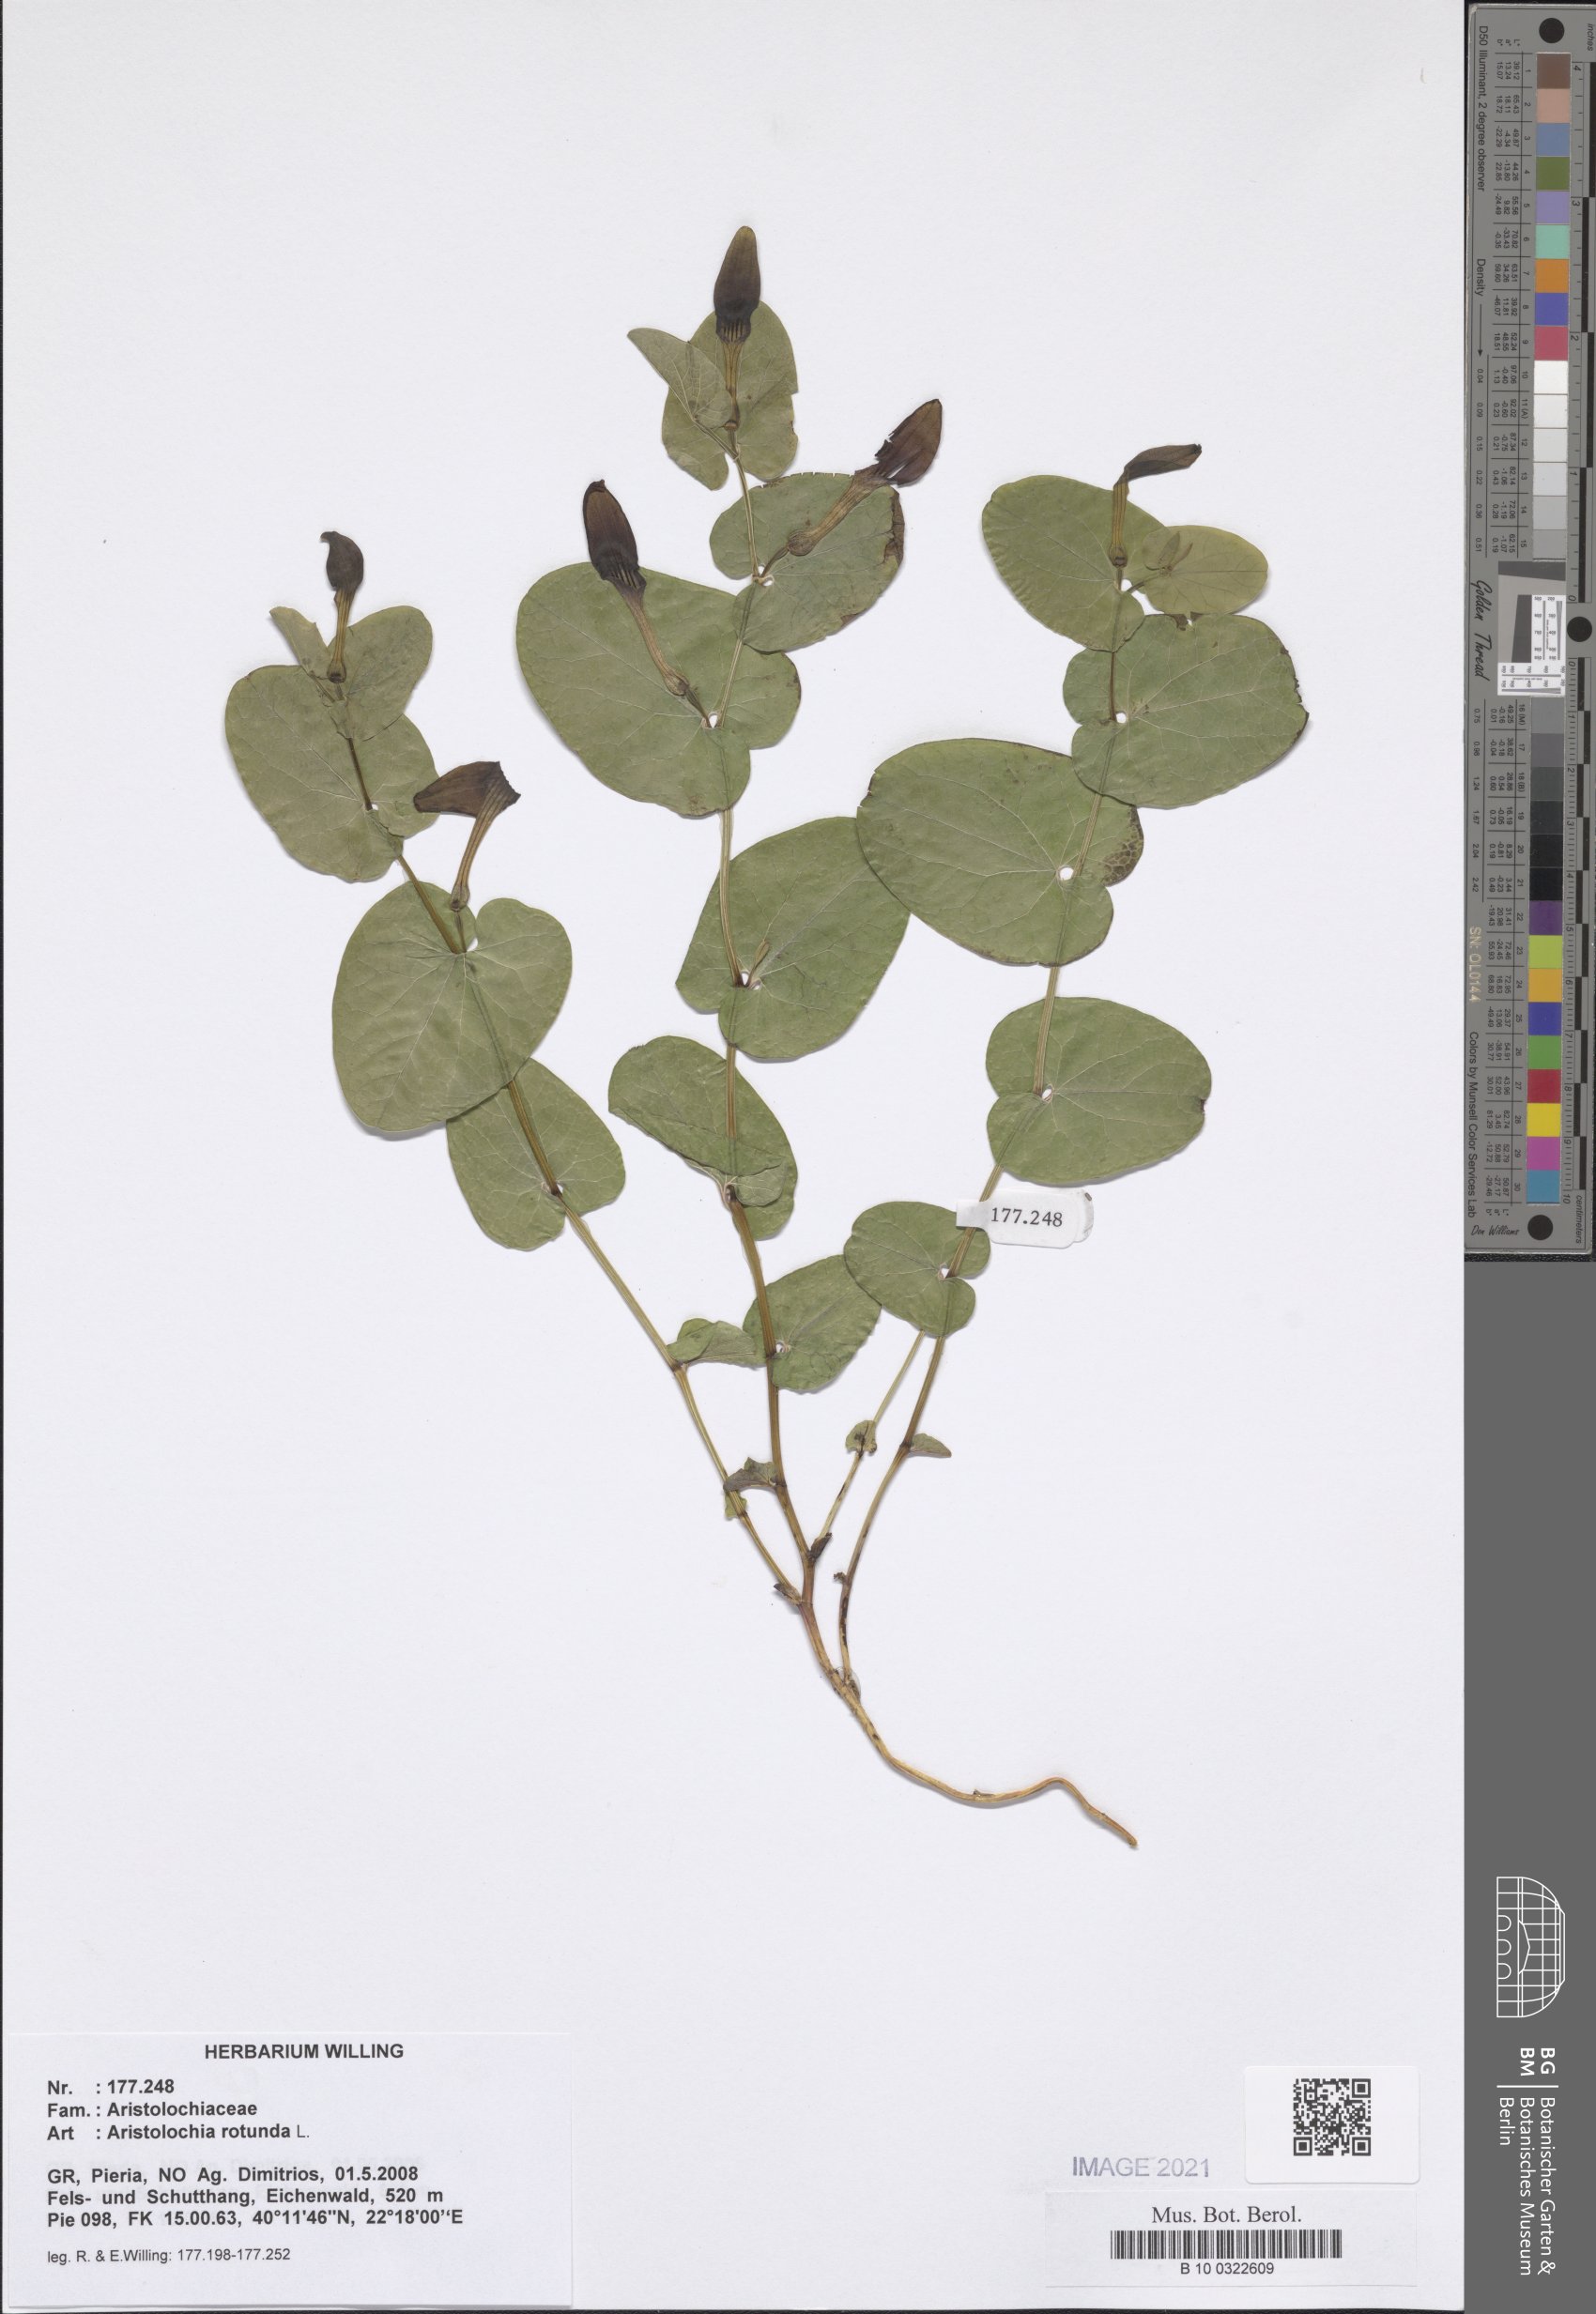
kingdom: Plantae
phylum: Tracheophyta
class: Magnoliopsida
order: Piperales
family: Aristolochiaceae
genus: Aristolochia
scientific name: Aristolochia rotunda
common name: Smearwort
